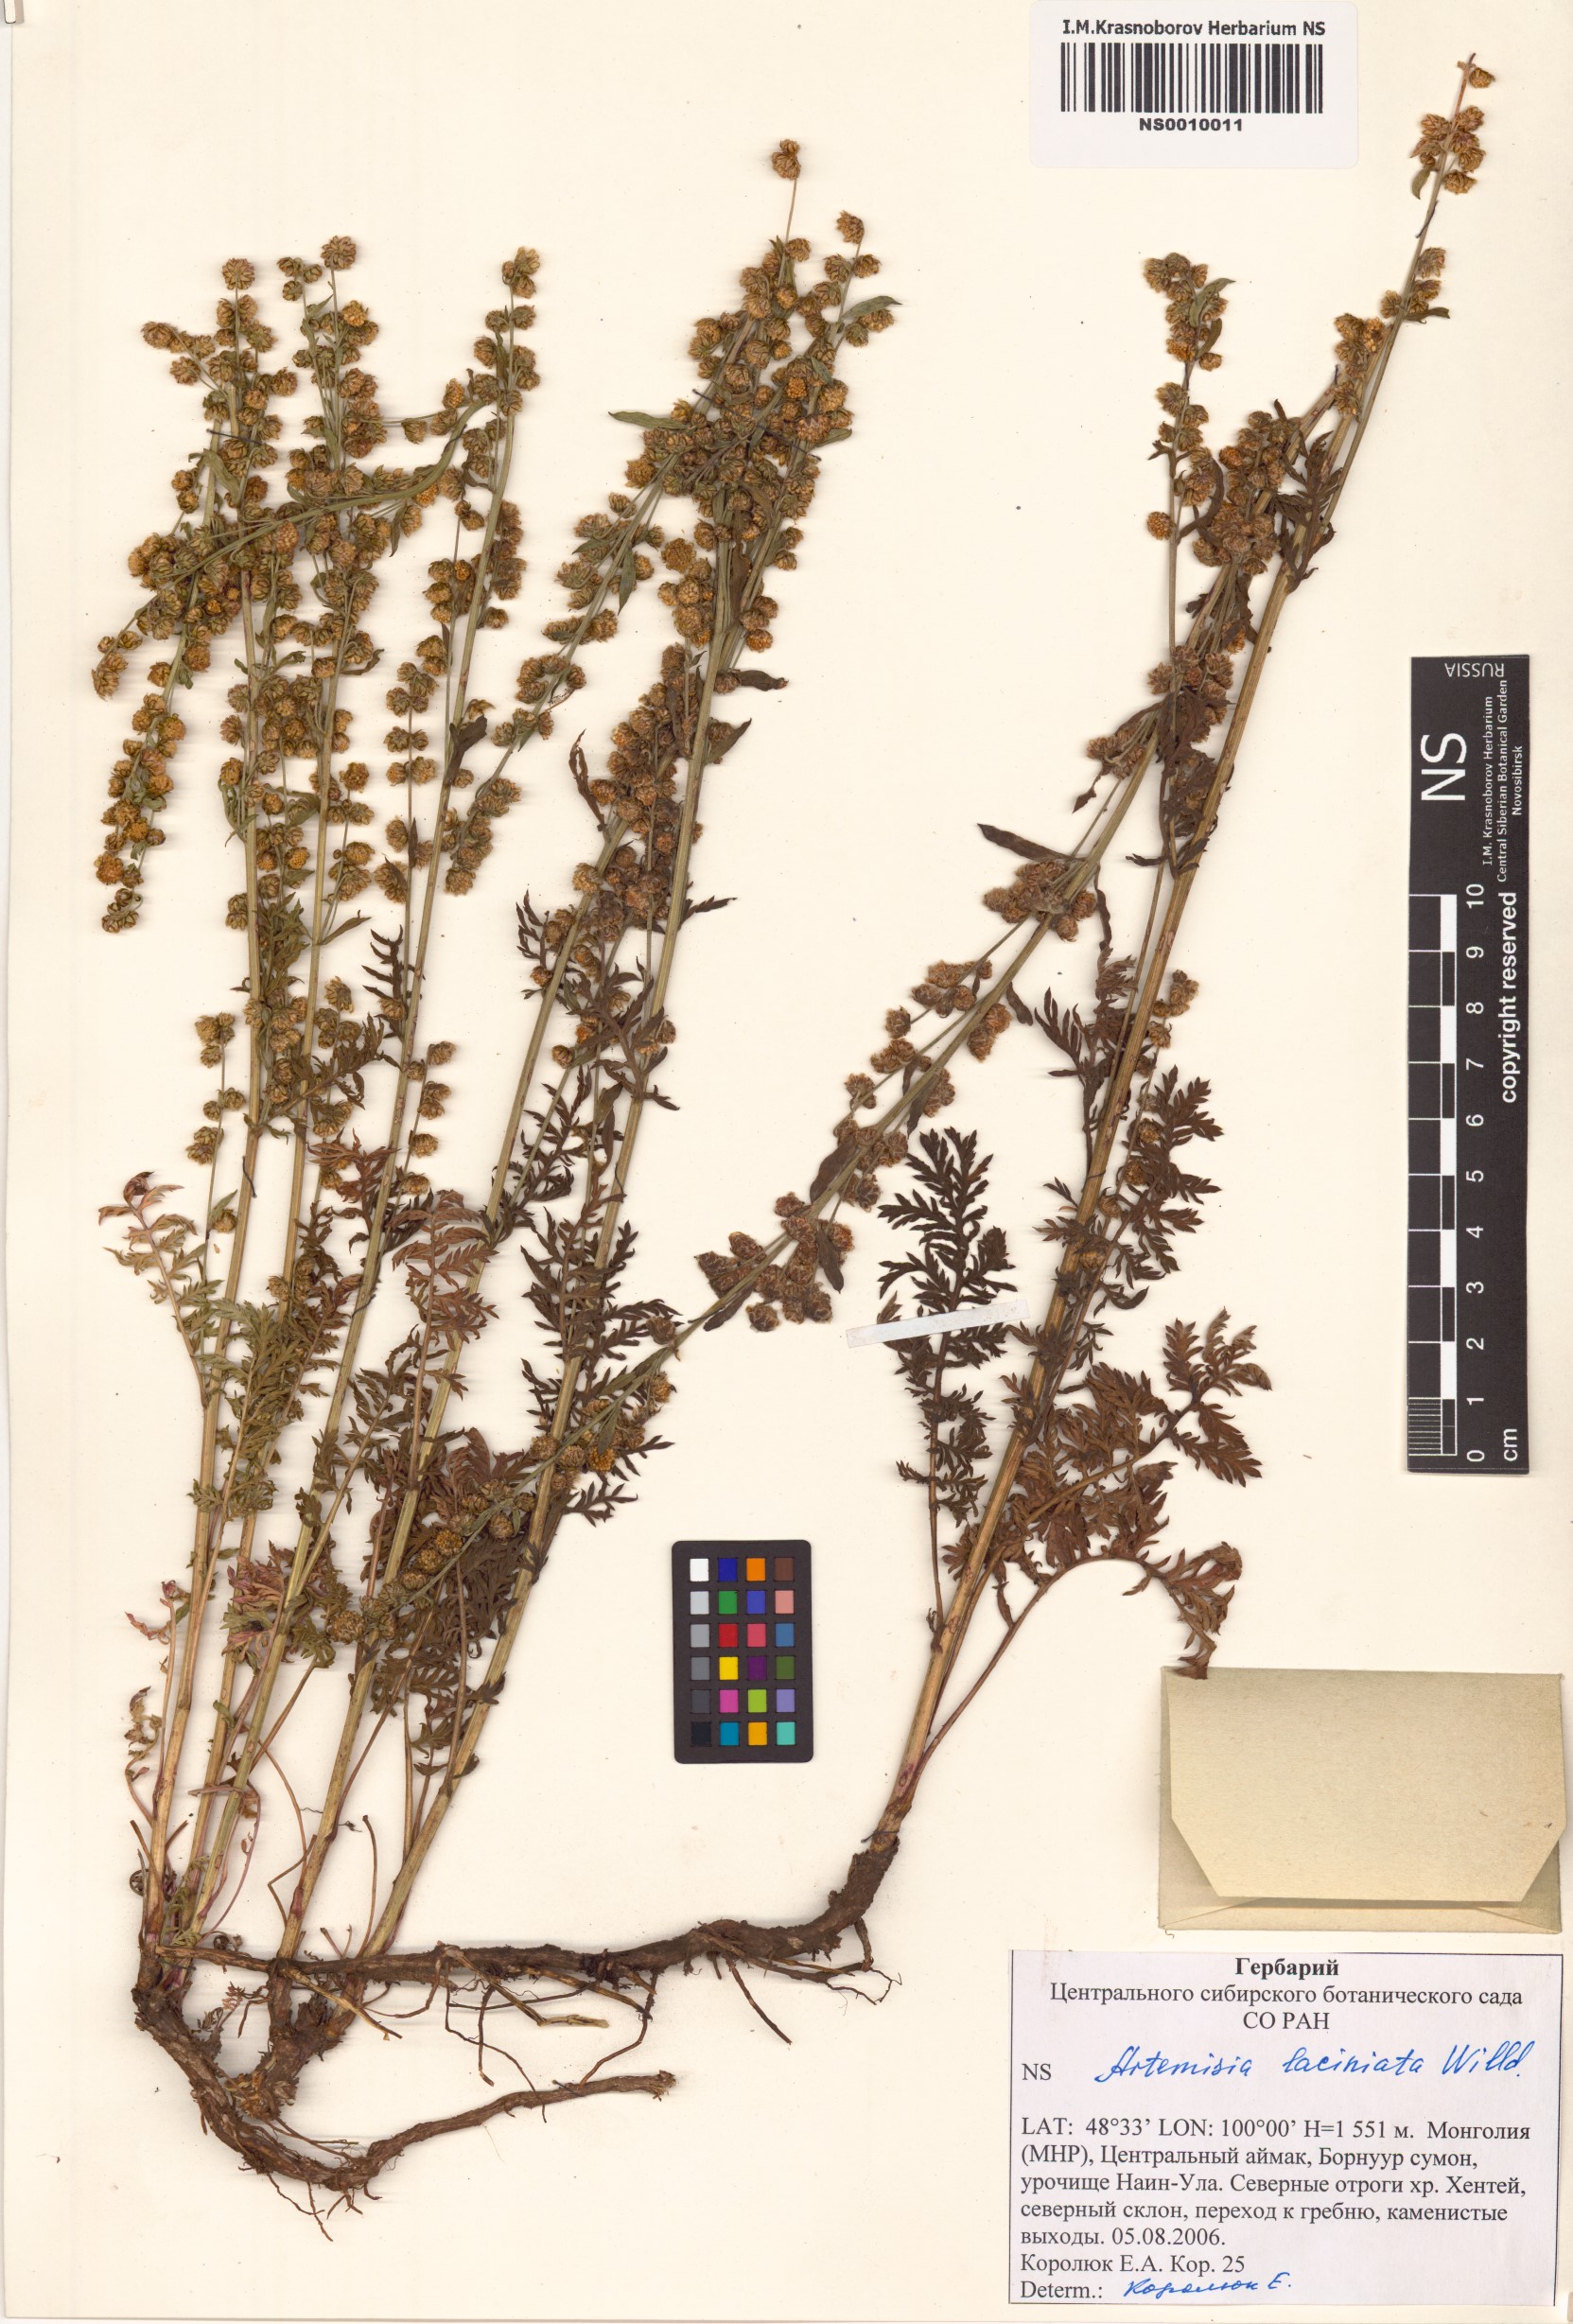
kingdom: Plantae
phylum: Tracheophyta
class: Magnoliopsida
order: Asterales
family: Asteraceae
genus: Artemisia
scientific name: Artemisia laciniata
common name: Siberian wormwood
